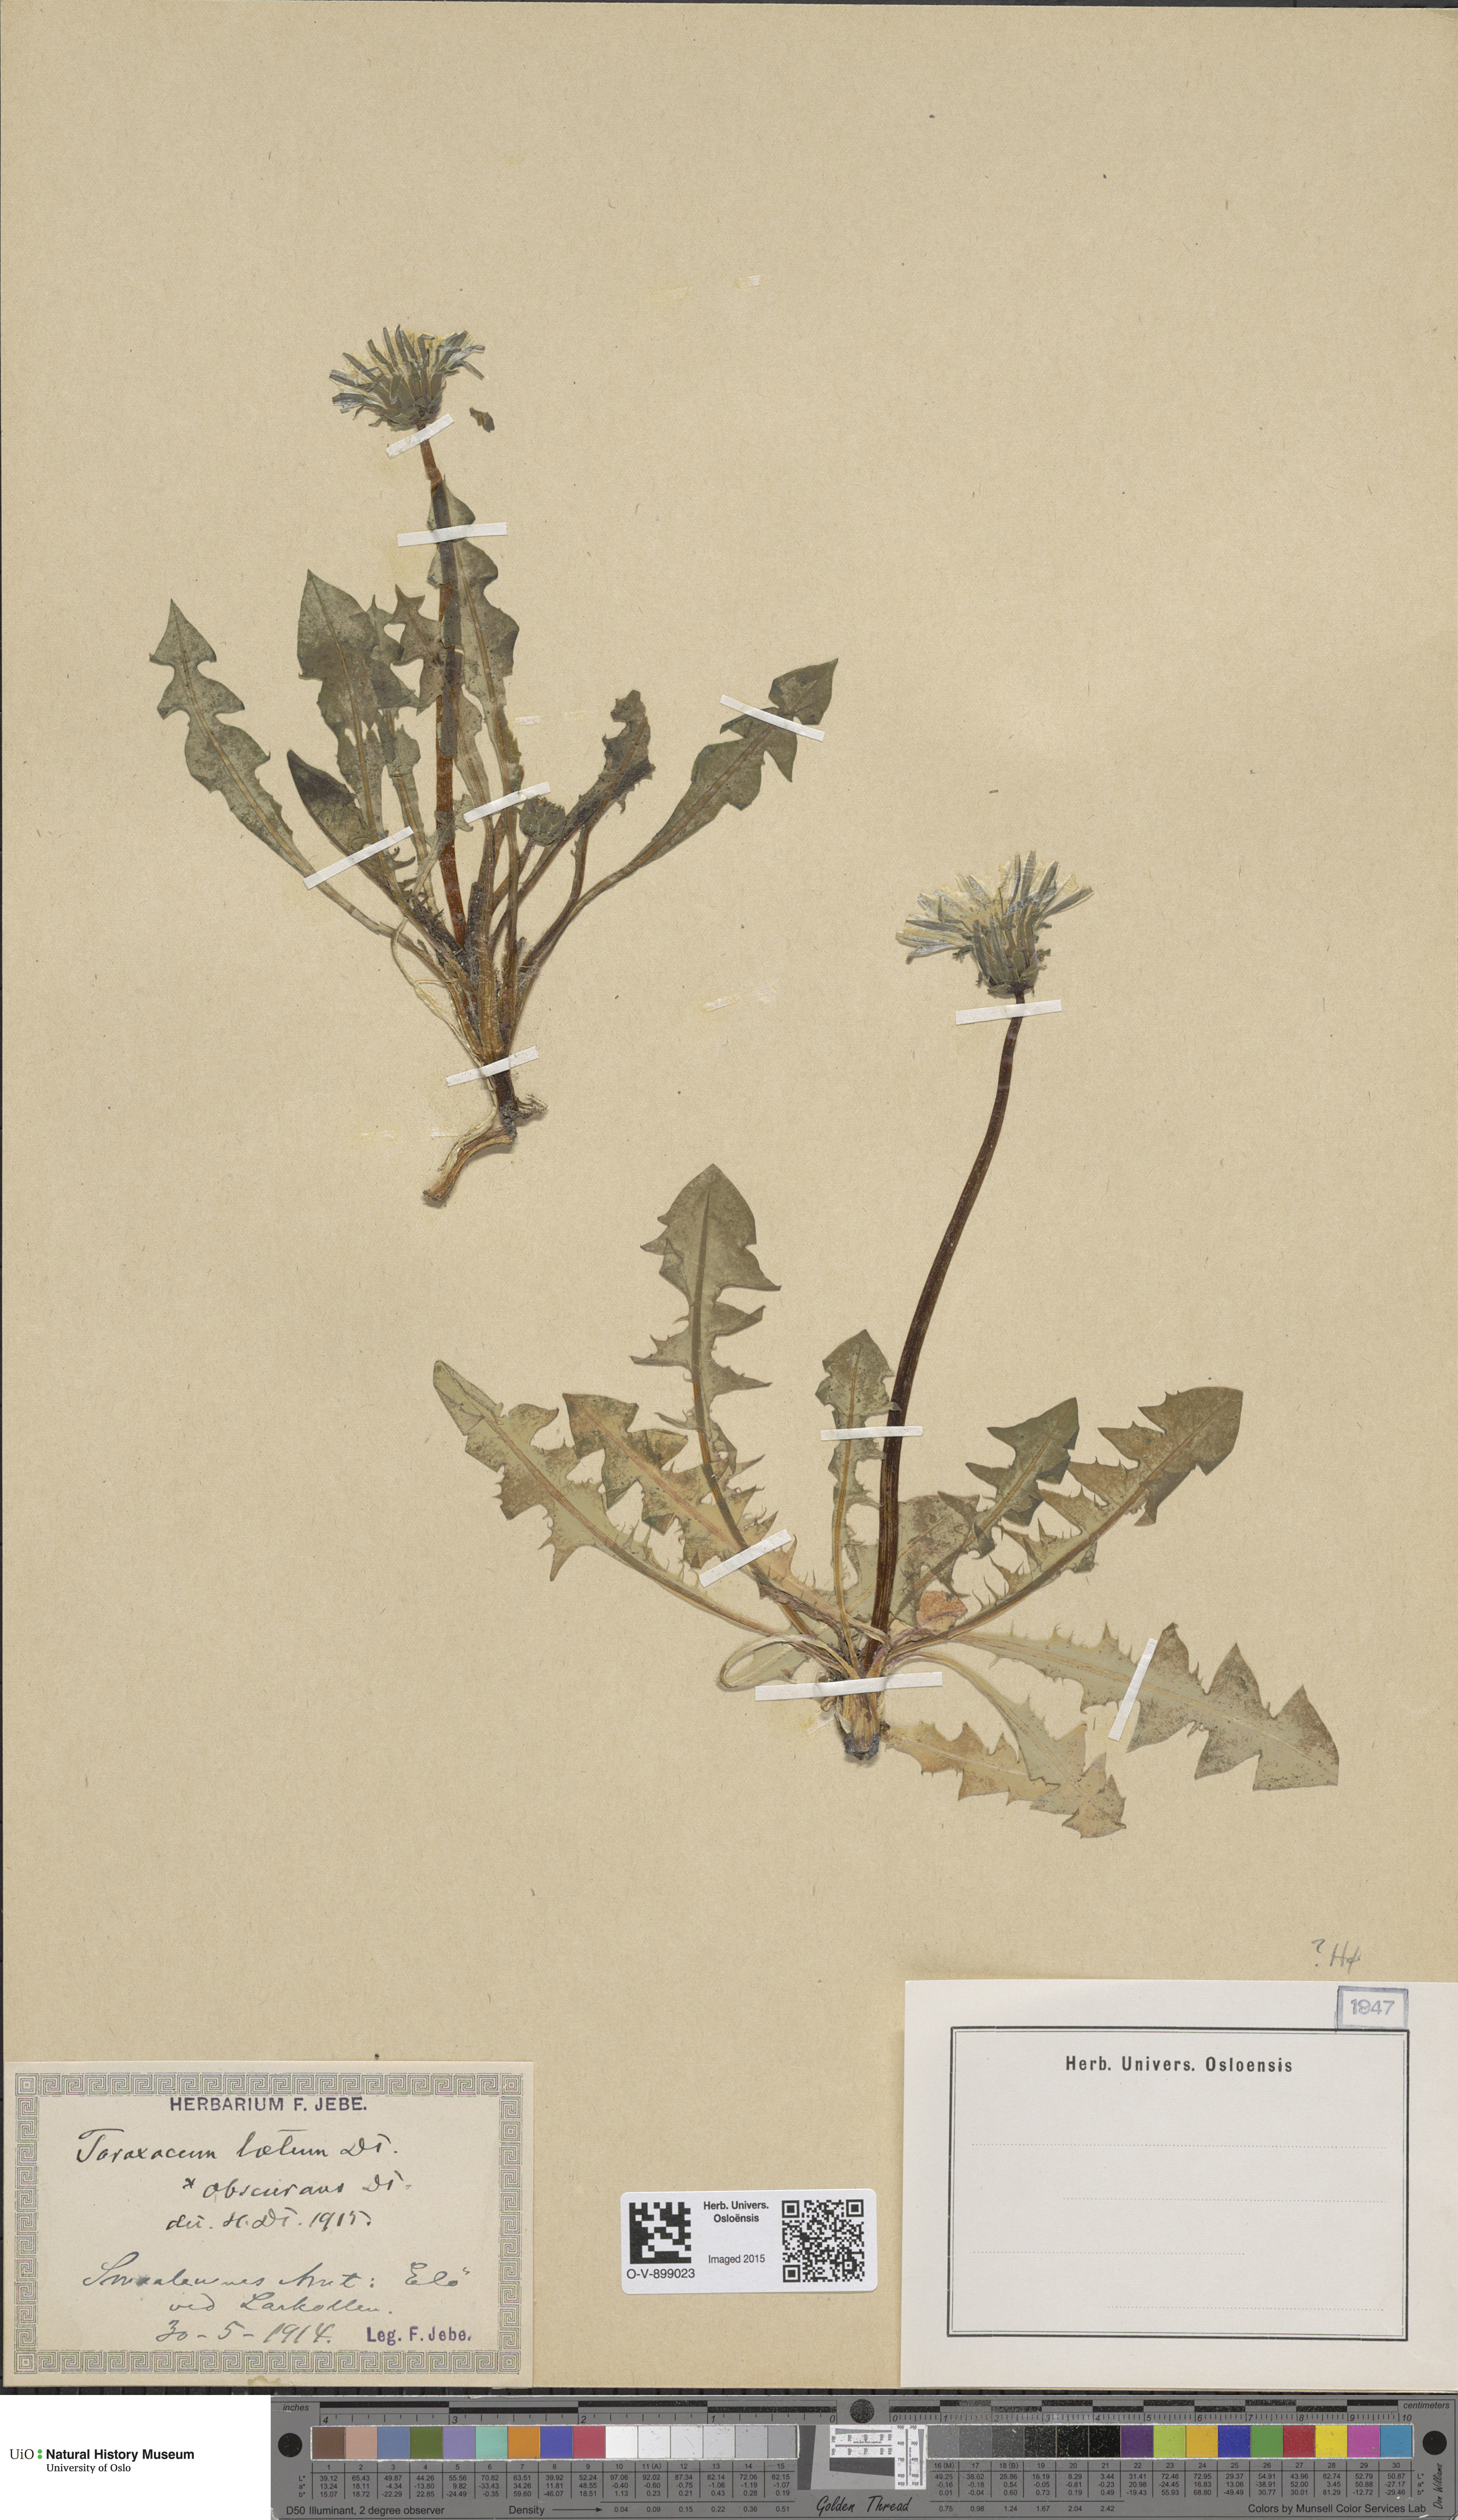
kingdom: Plantae
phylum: Tracheophyta
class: Magnoliopsida
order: Asterales
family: Asteraceae
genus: Taraxacum
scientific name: Taraxacum limbatum
